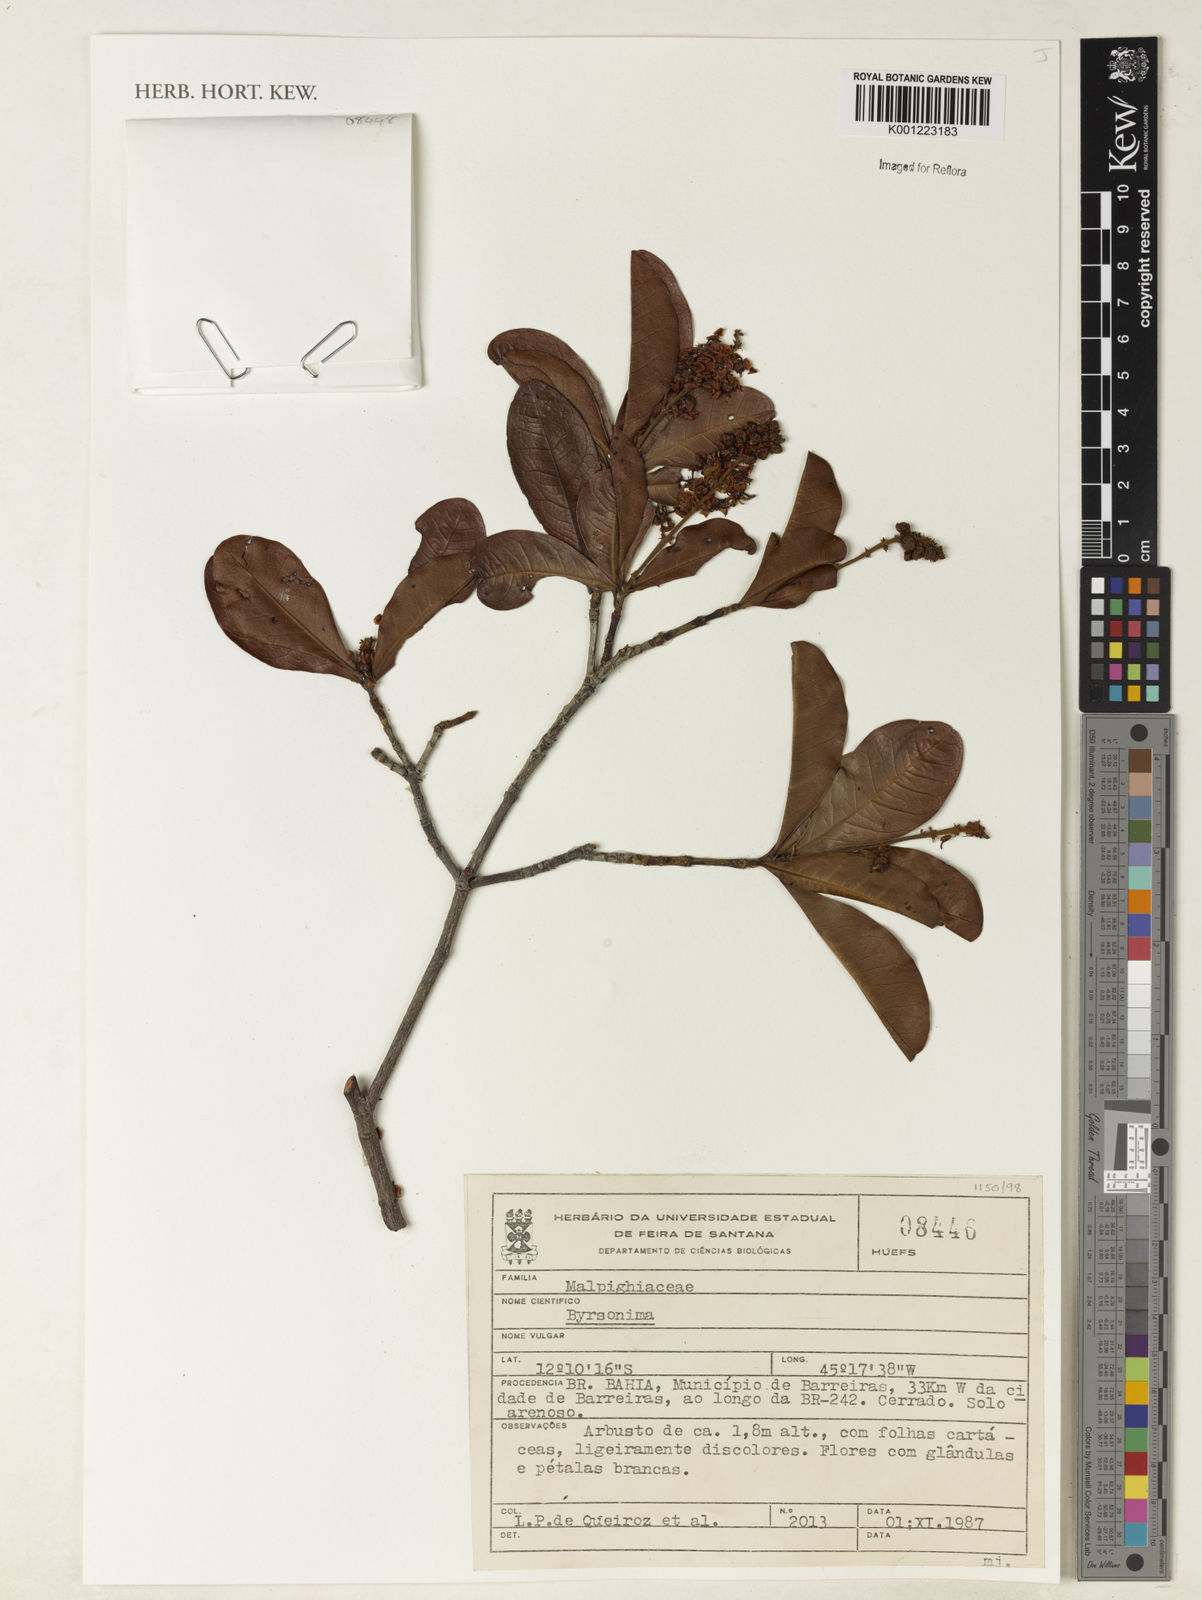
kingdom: Plantae
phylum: Tracheophyta
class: Magnoliopsida
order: Malpighiales
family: Malpighiaceae
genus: Byrsonima
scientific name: Byrsonima
